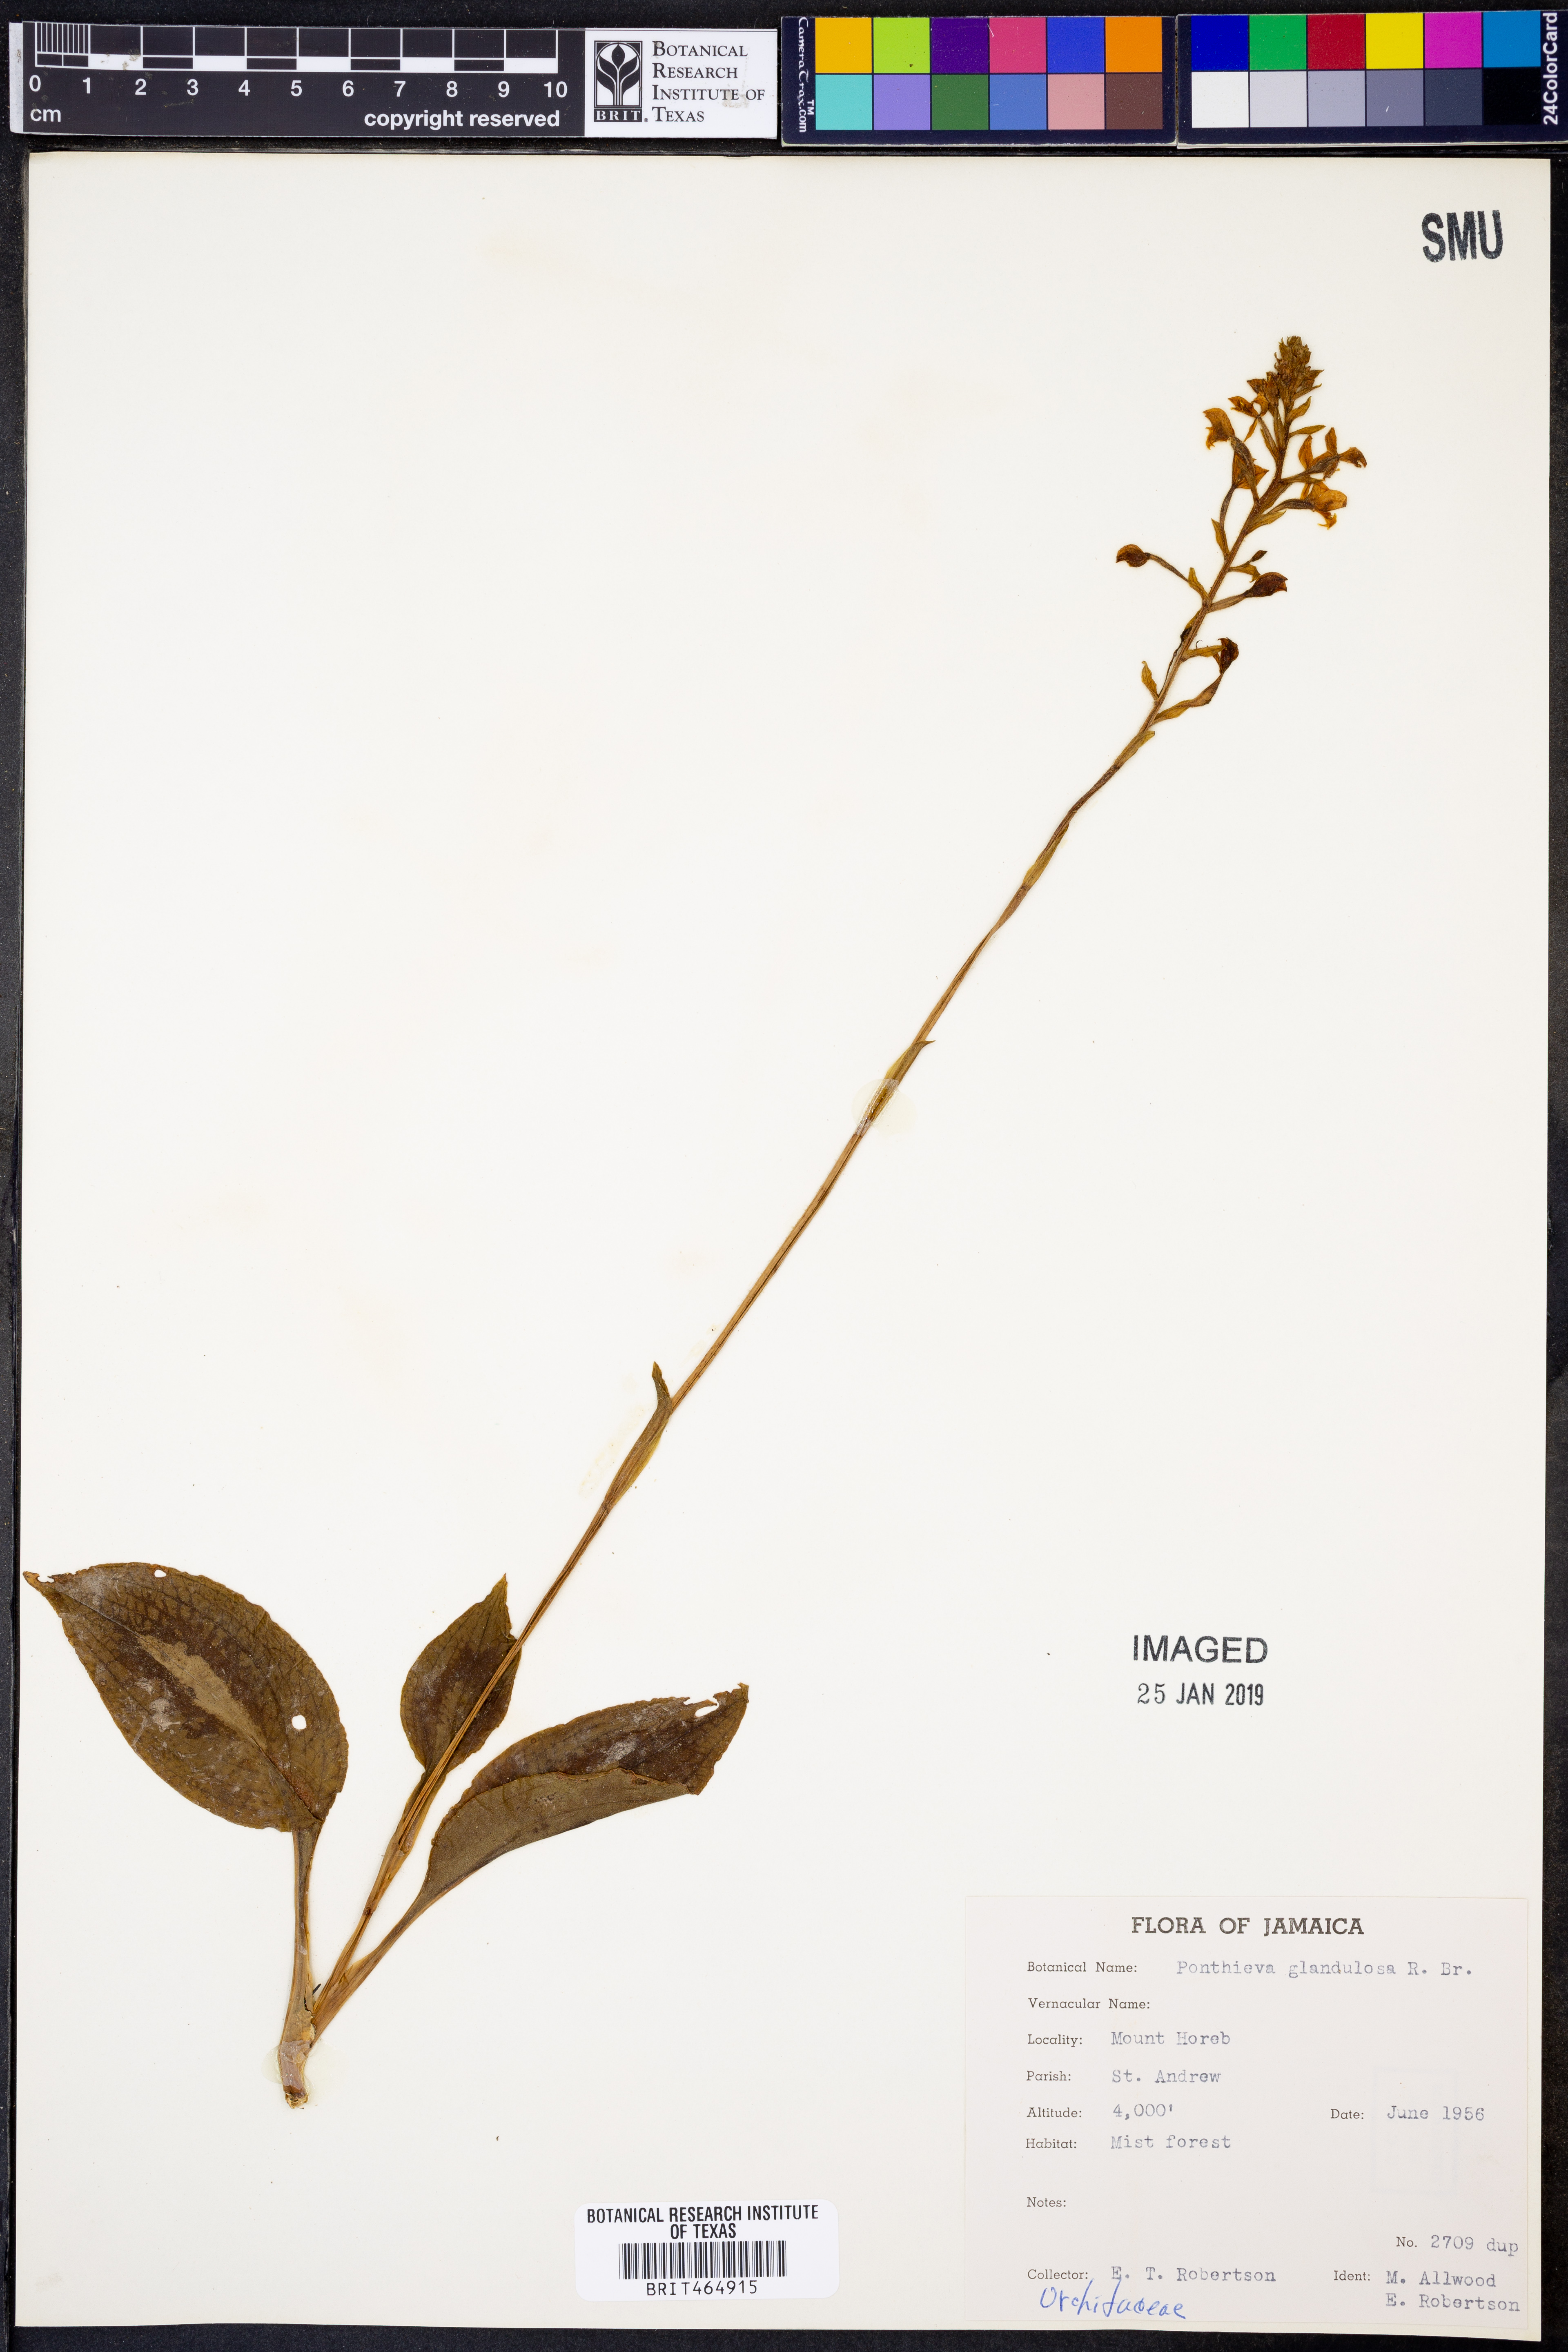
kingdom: Plantae
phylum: Tracheophyta
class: Liliopsida
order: Asparagales
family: Orchidaceae
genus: Ponthieva
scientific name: Ponthieva glandulosa
